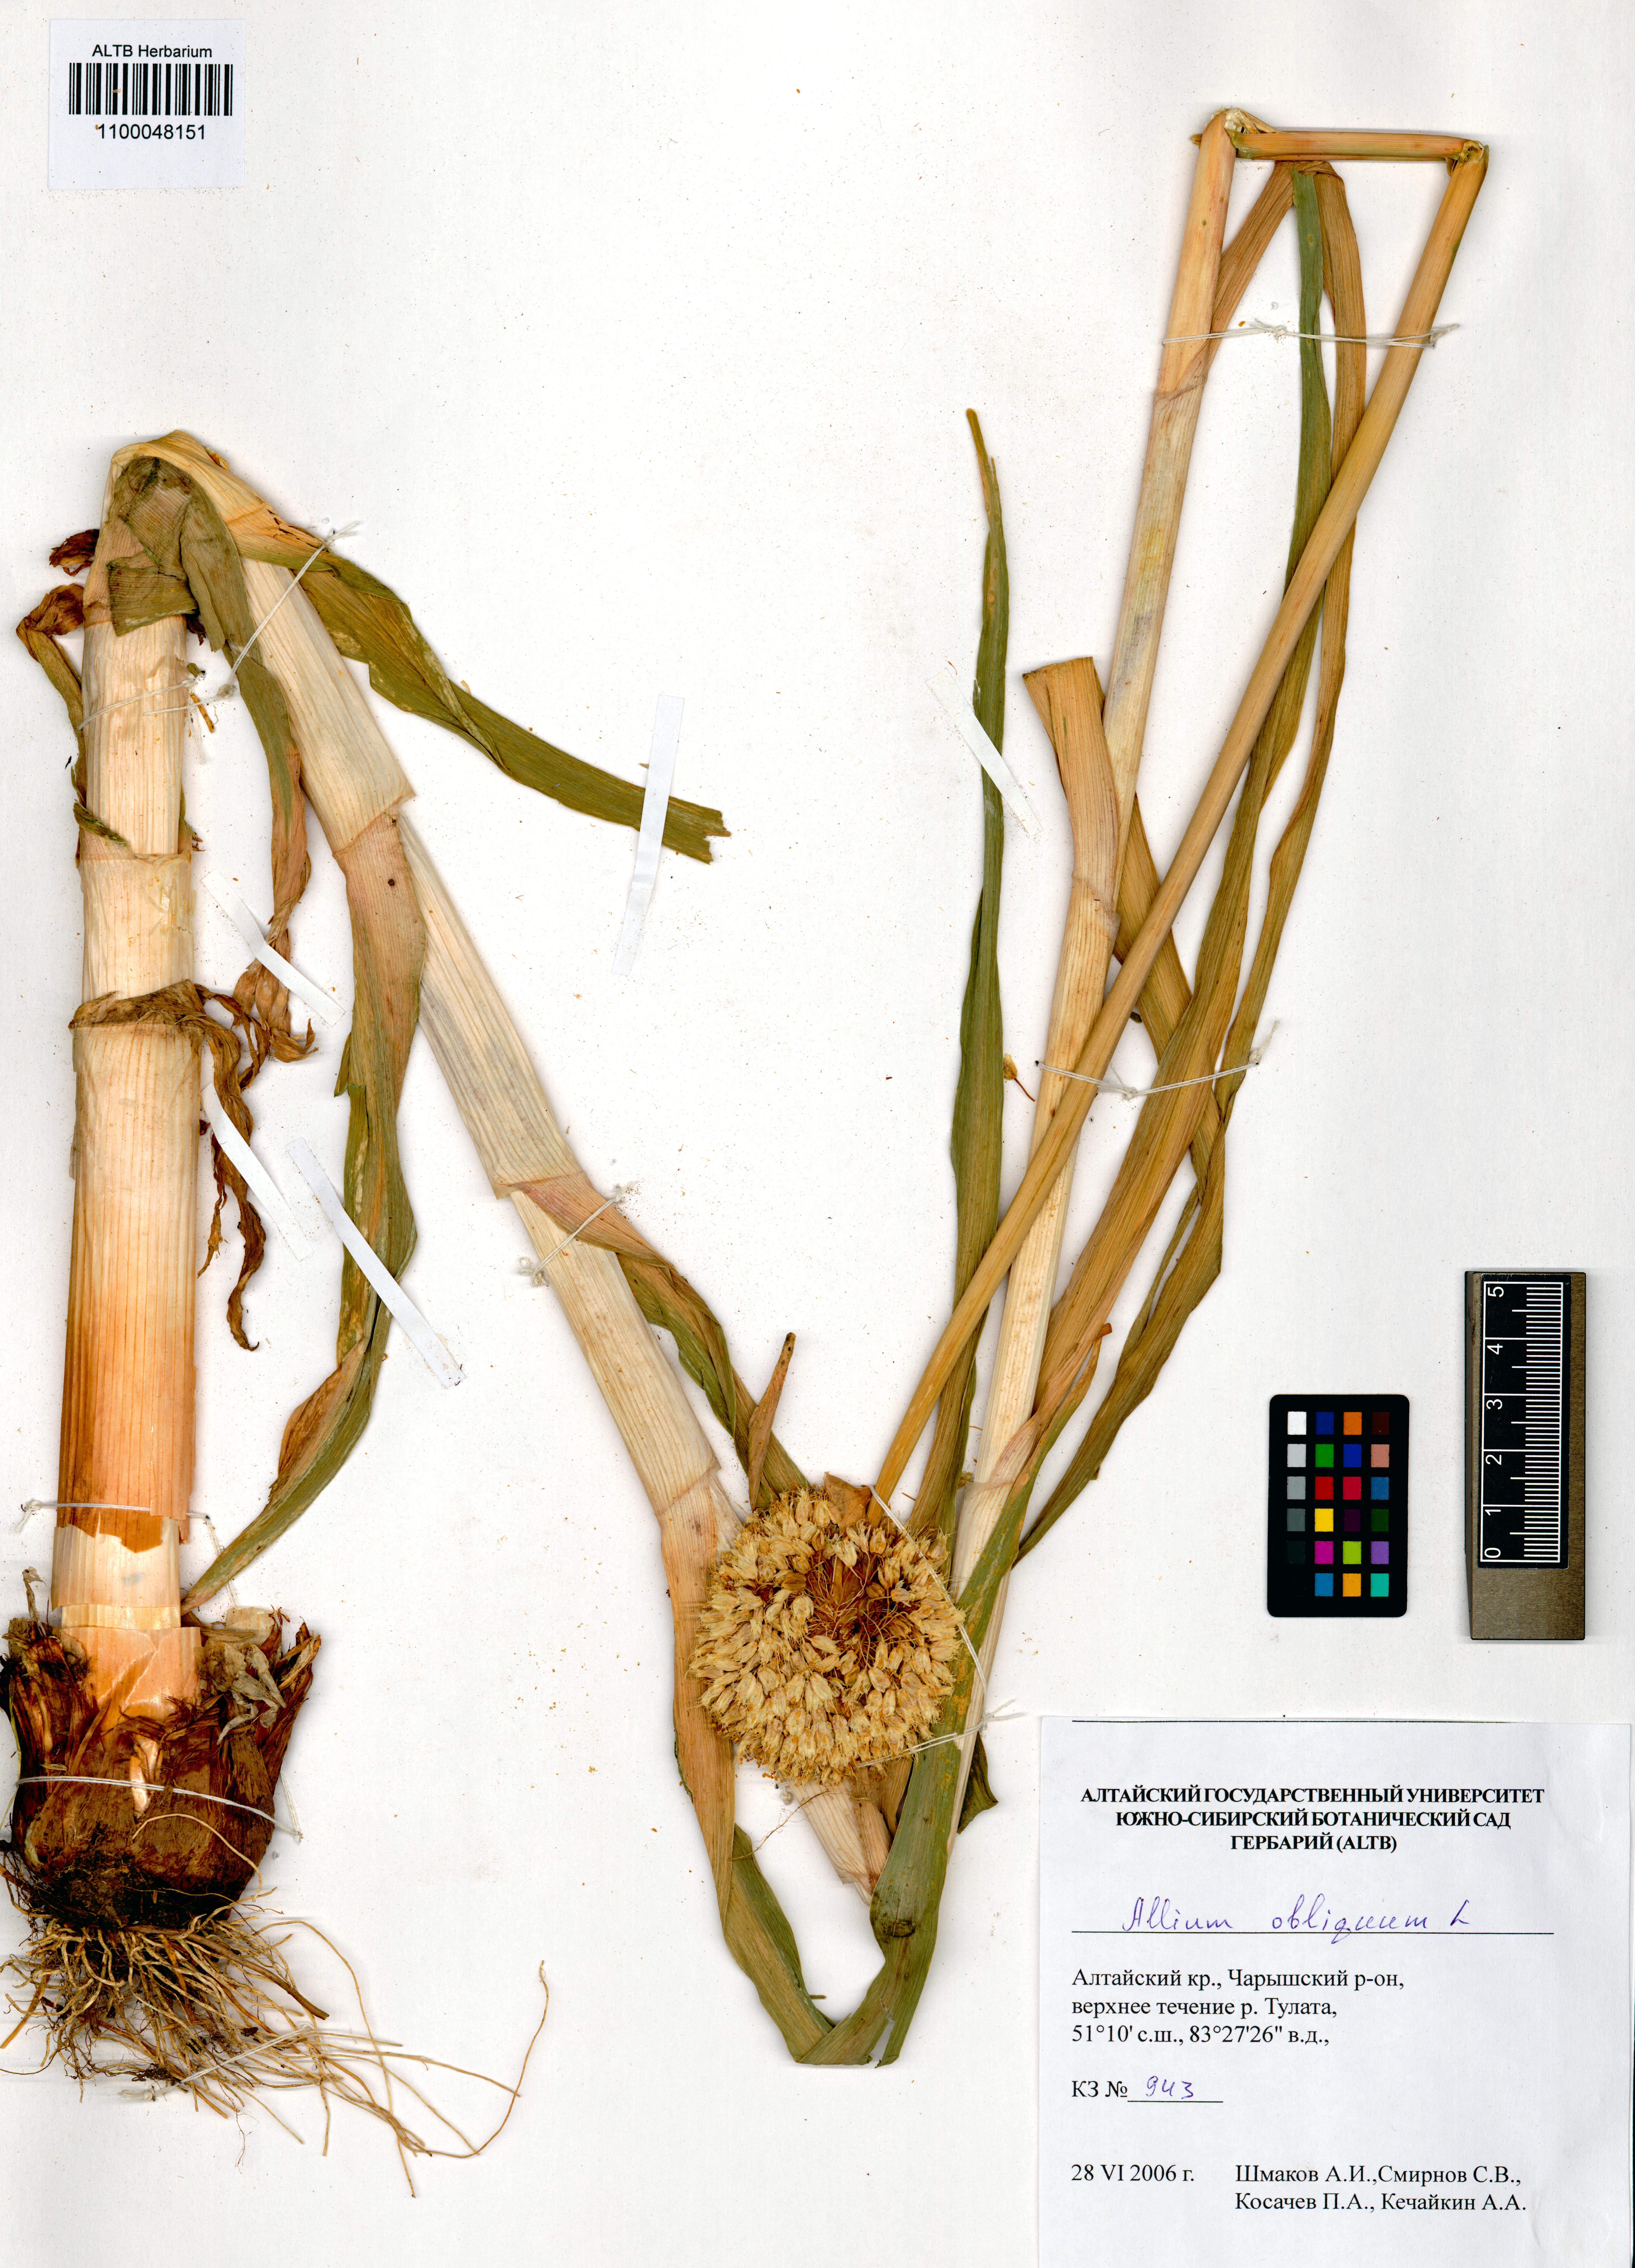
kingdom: Plantae
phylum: Tracheophyta
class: Liliopsida
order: Asparagales
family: Amaryllidaceae
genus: Allium
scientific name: Allium obliquum
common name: Oblique onion
